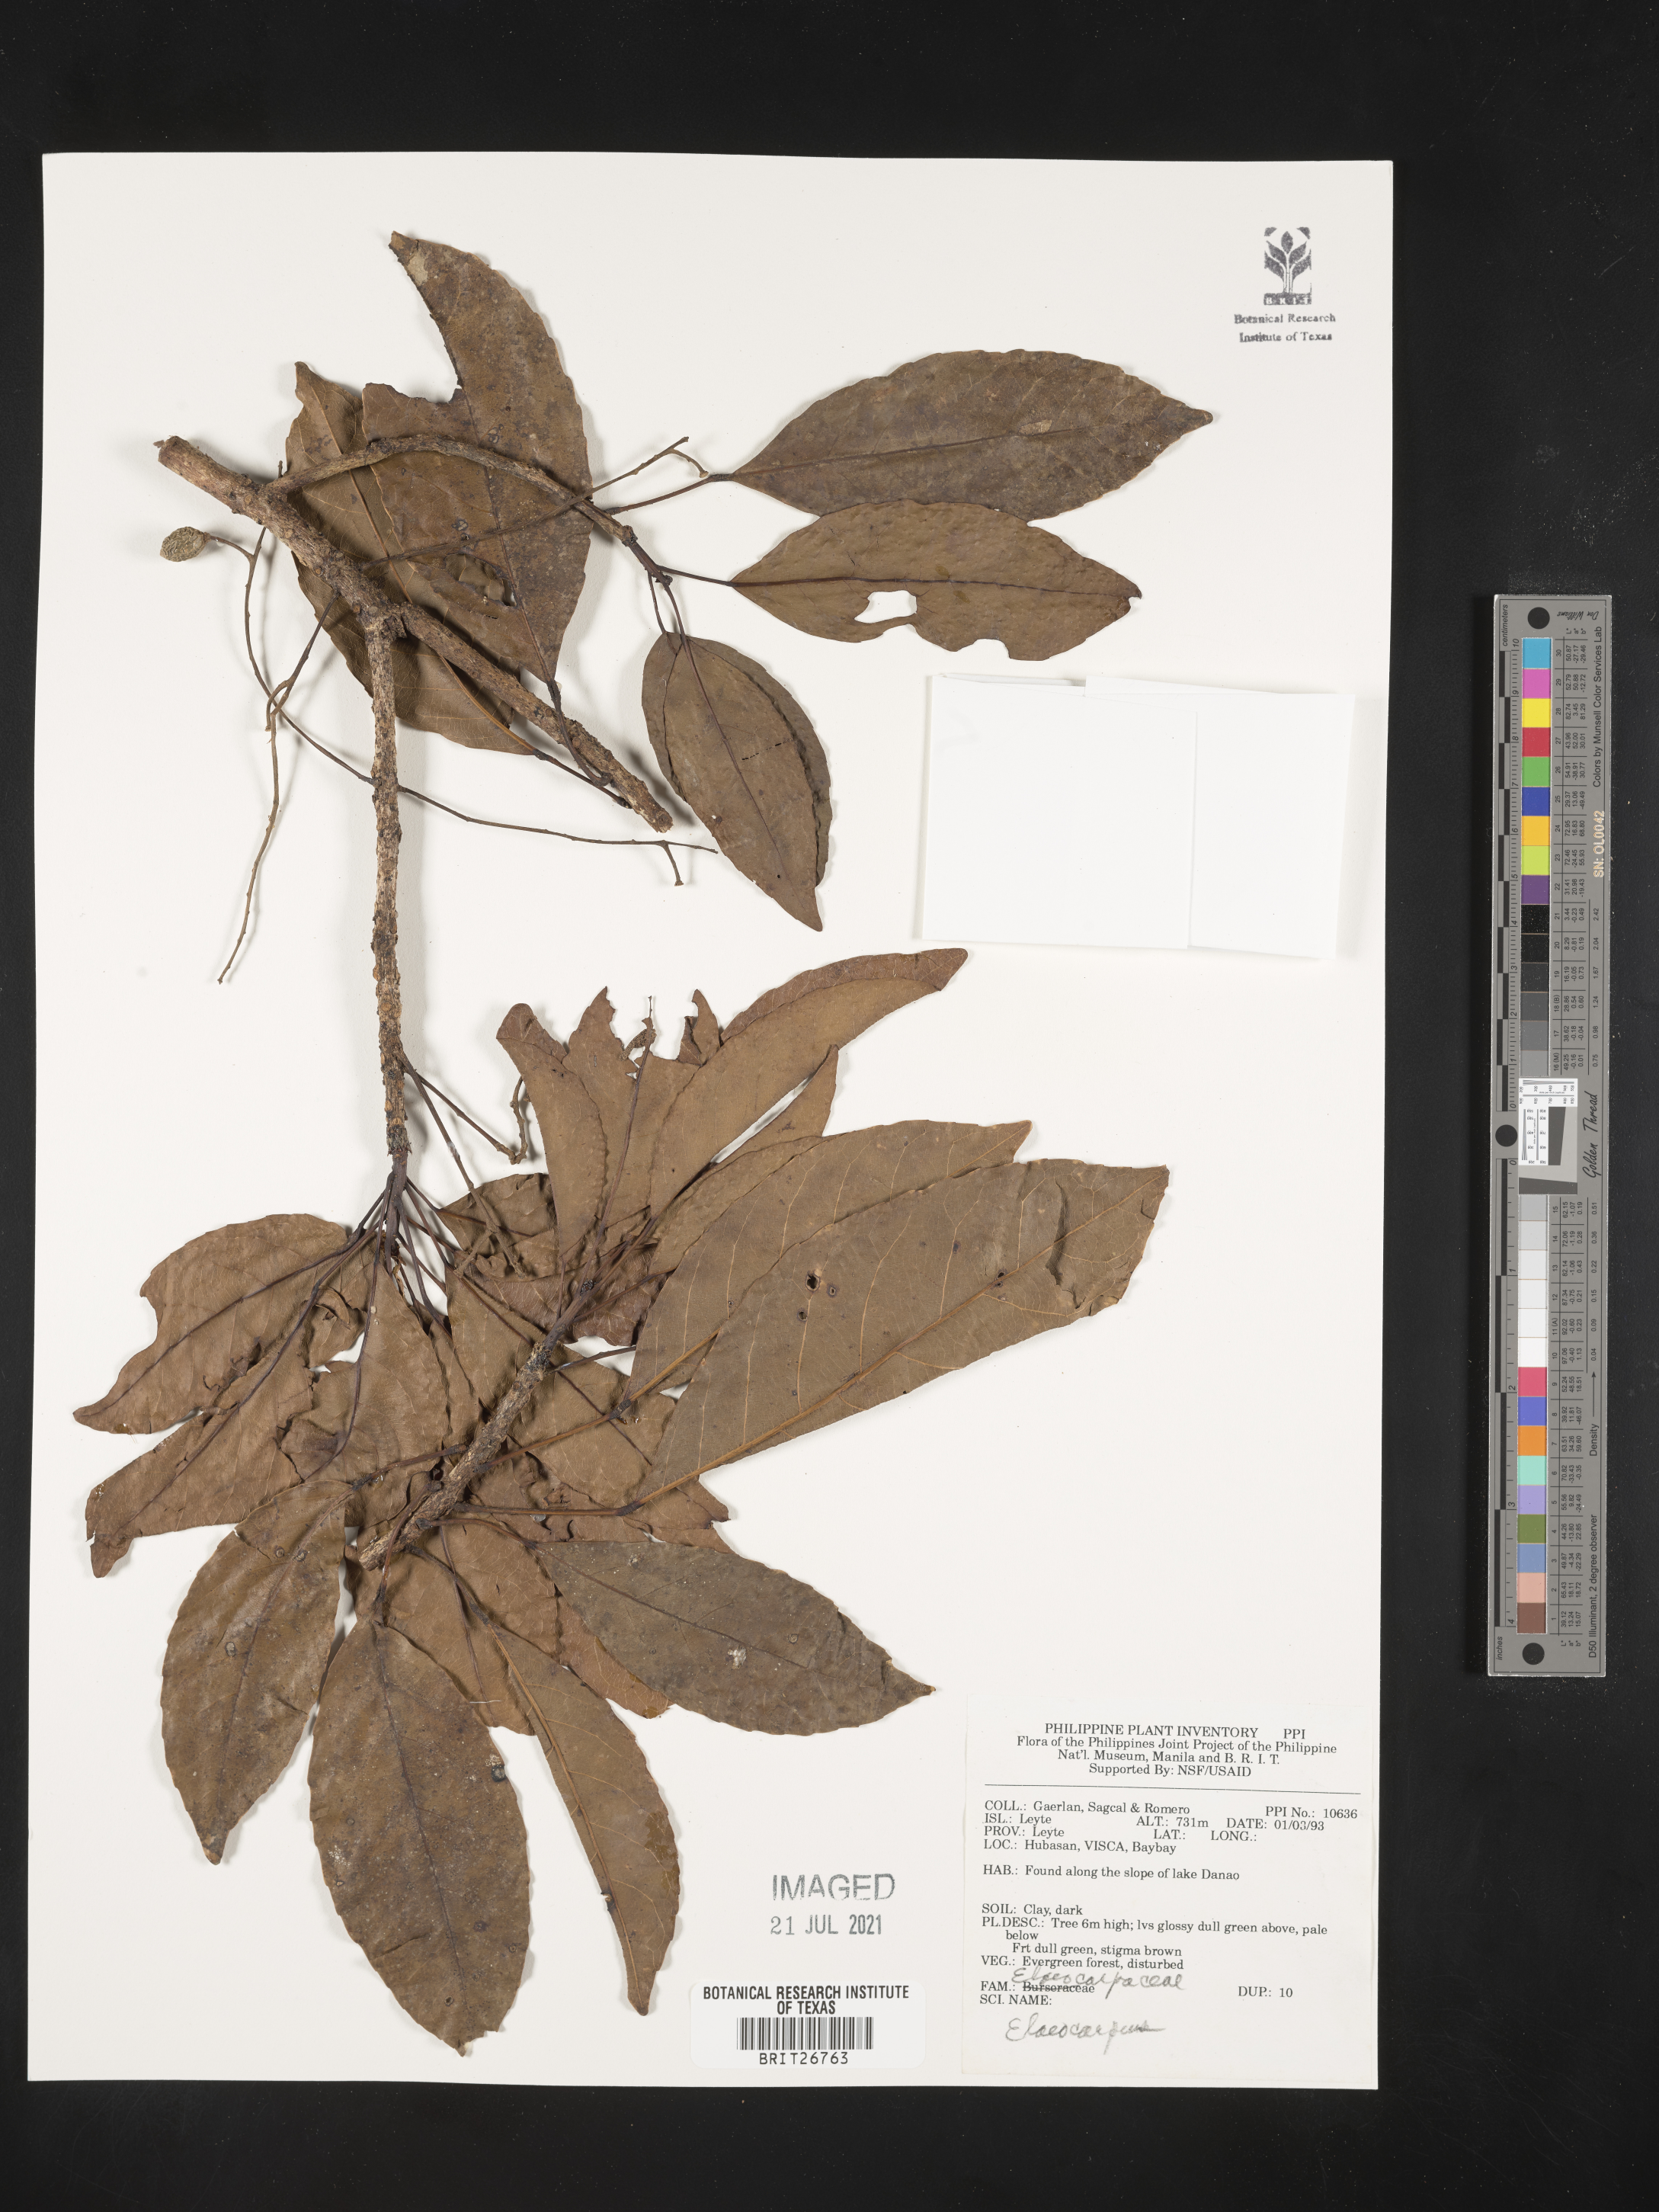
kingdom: Plantae
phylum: Tracheophyta
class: Magnoliopsida
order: Oxalidales
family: Elaeocarpaceae
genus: Elaeocarpus
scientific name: Elaeocarpus
